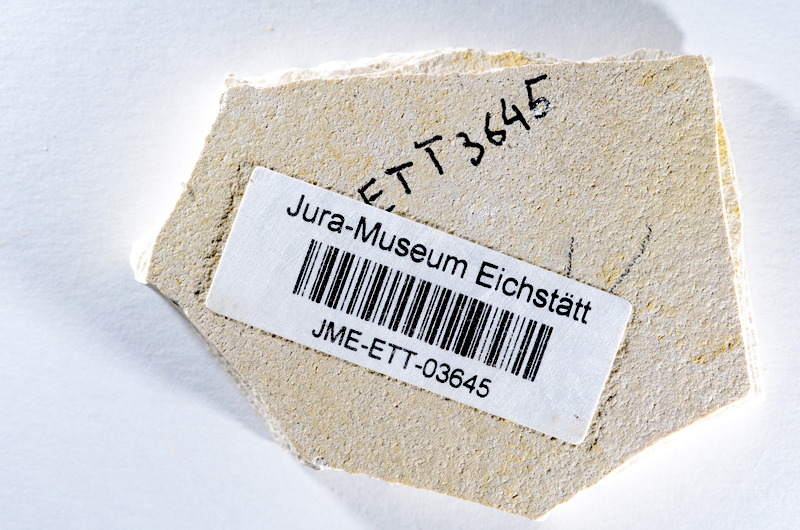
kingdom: Animalia
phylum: Chordata
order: Salmoniformes
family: Orthogonikleithridae
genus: Orthogonikleithrus
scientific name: Orthogonikleithrus hoelli
